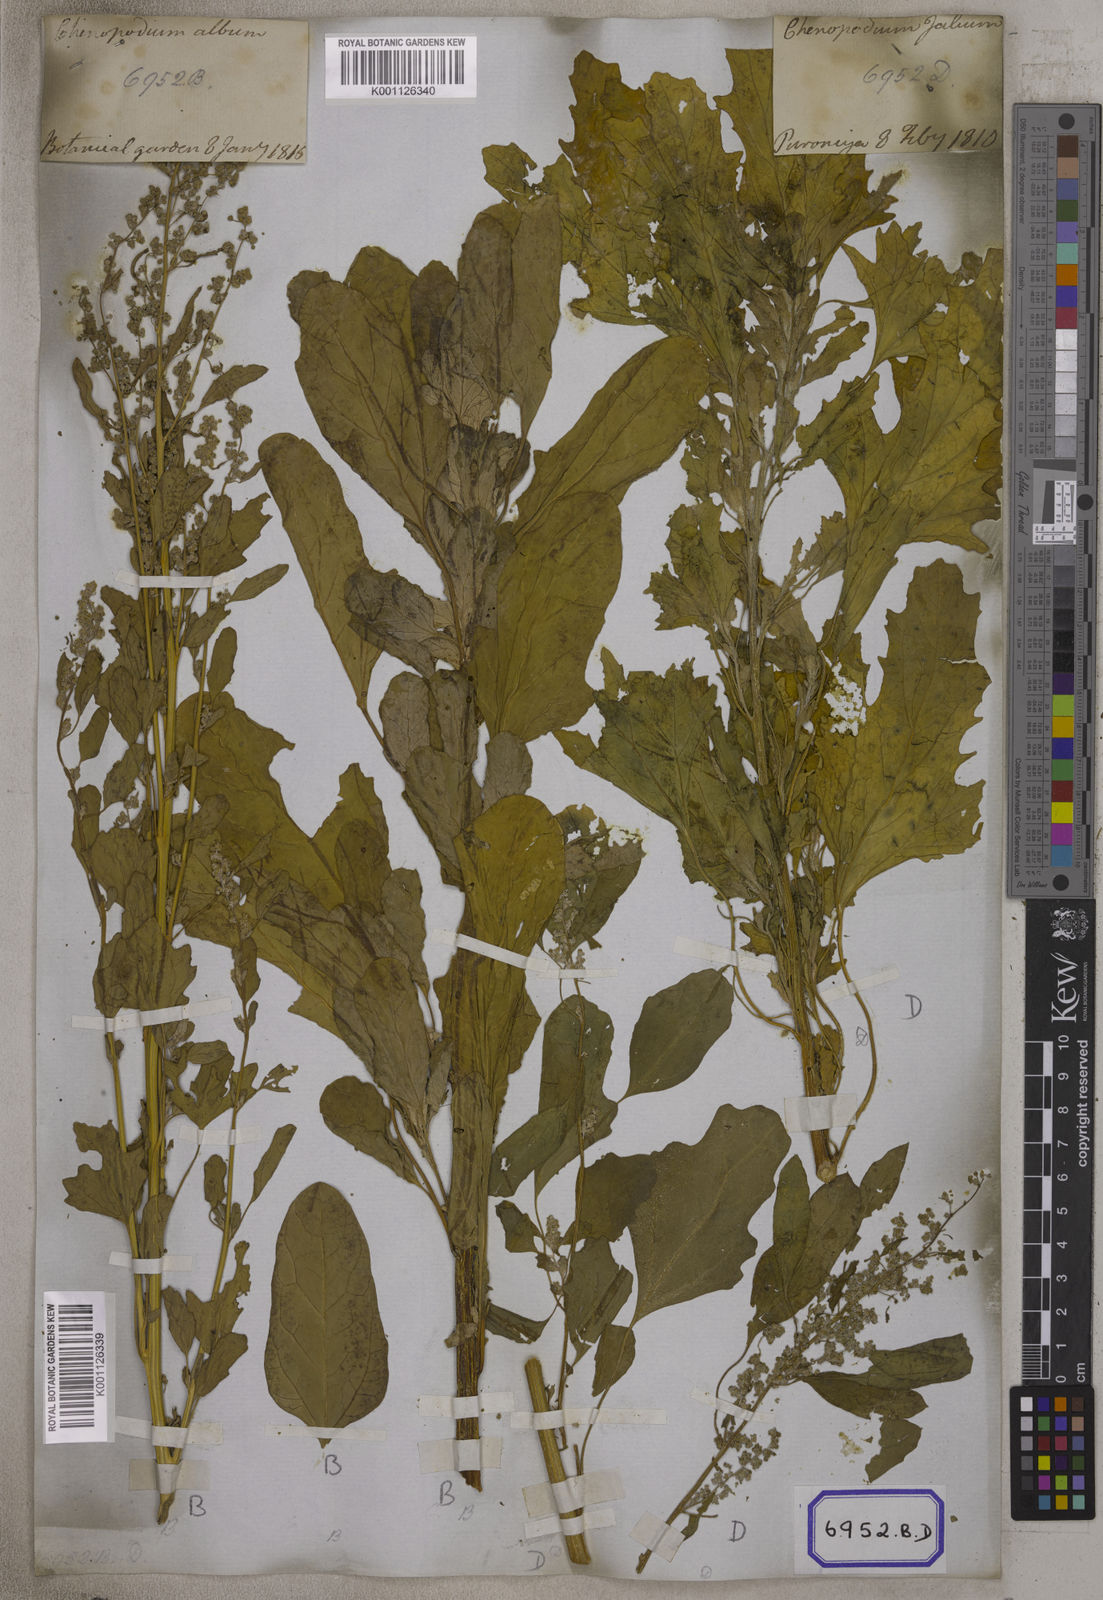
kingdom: Plantae
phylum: Tracheophyta
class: Magnoliopsida
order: Caryophyllales
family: Amaranthaceae
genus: Chenopodium
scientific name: Chenopodium album
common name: Fat-hen
